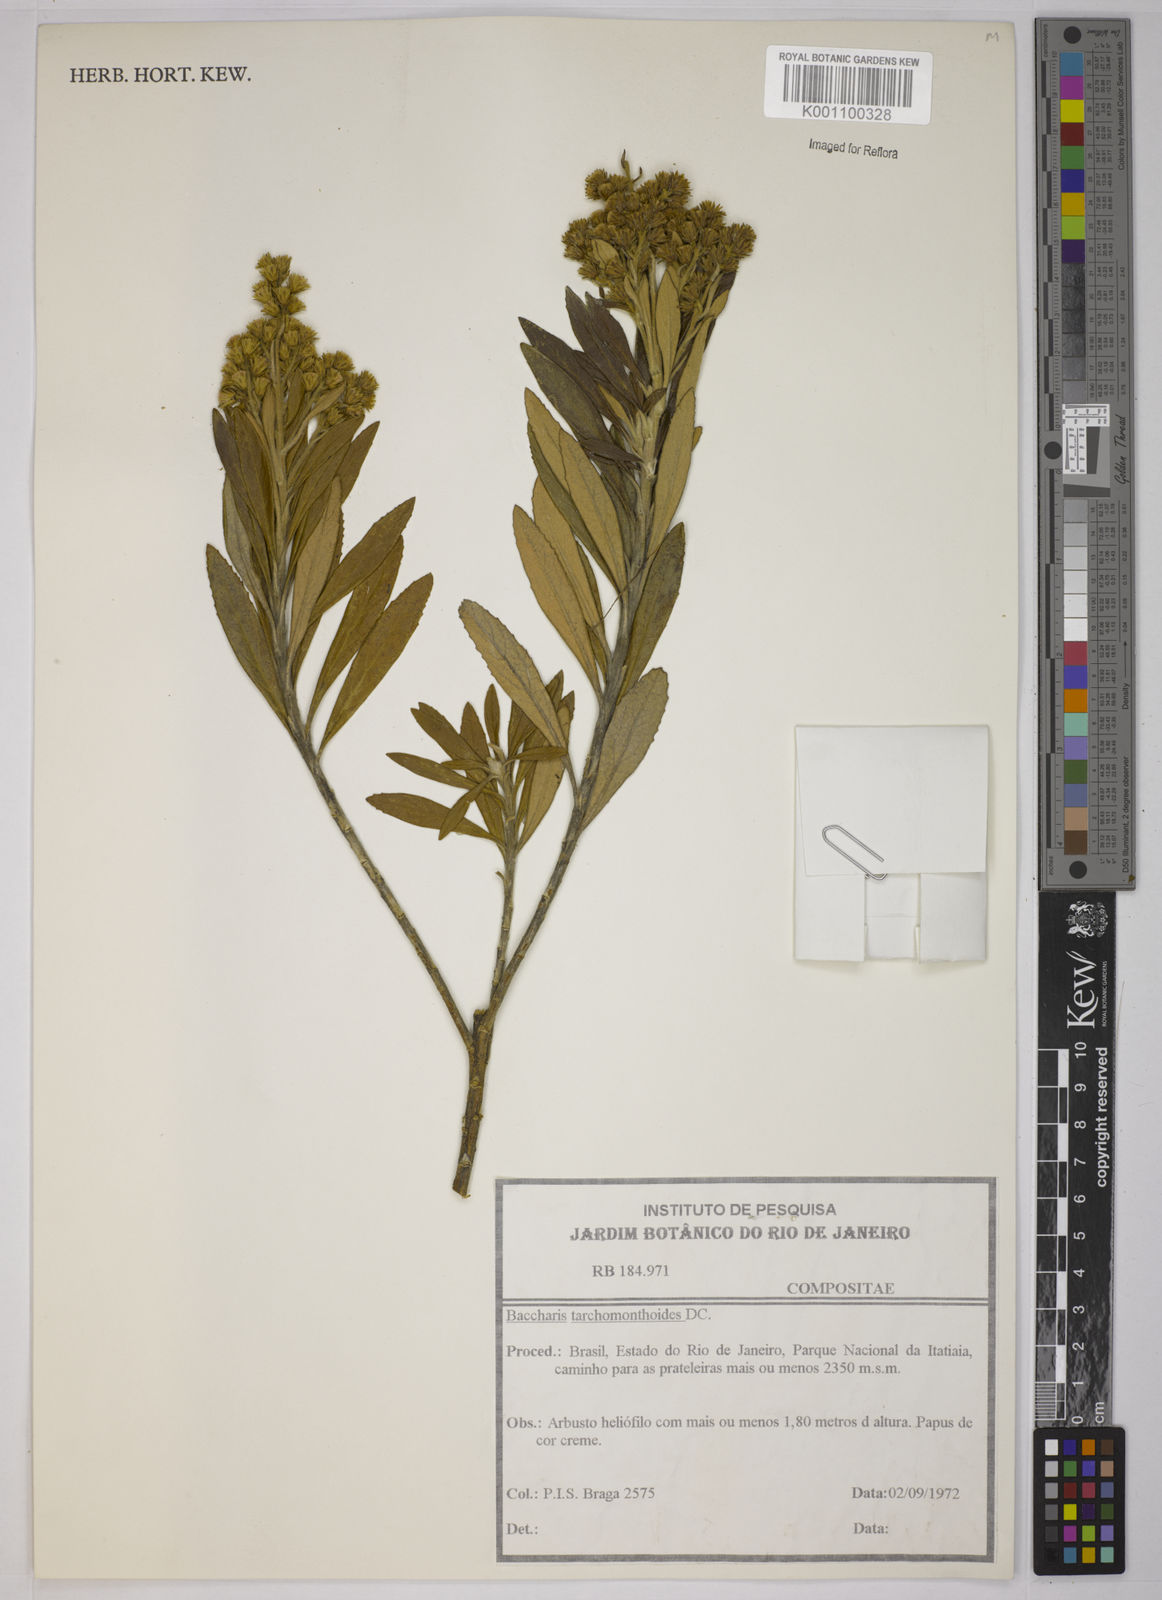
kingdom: Plantae
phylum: Tracheophyta
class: Magnoliopsida
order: Asterales
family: Asteraceae
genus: Baccharis
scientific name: Baccharis
